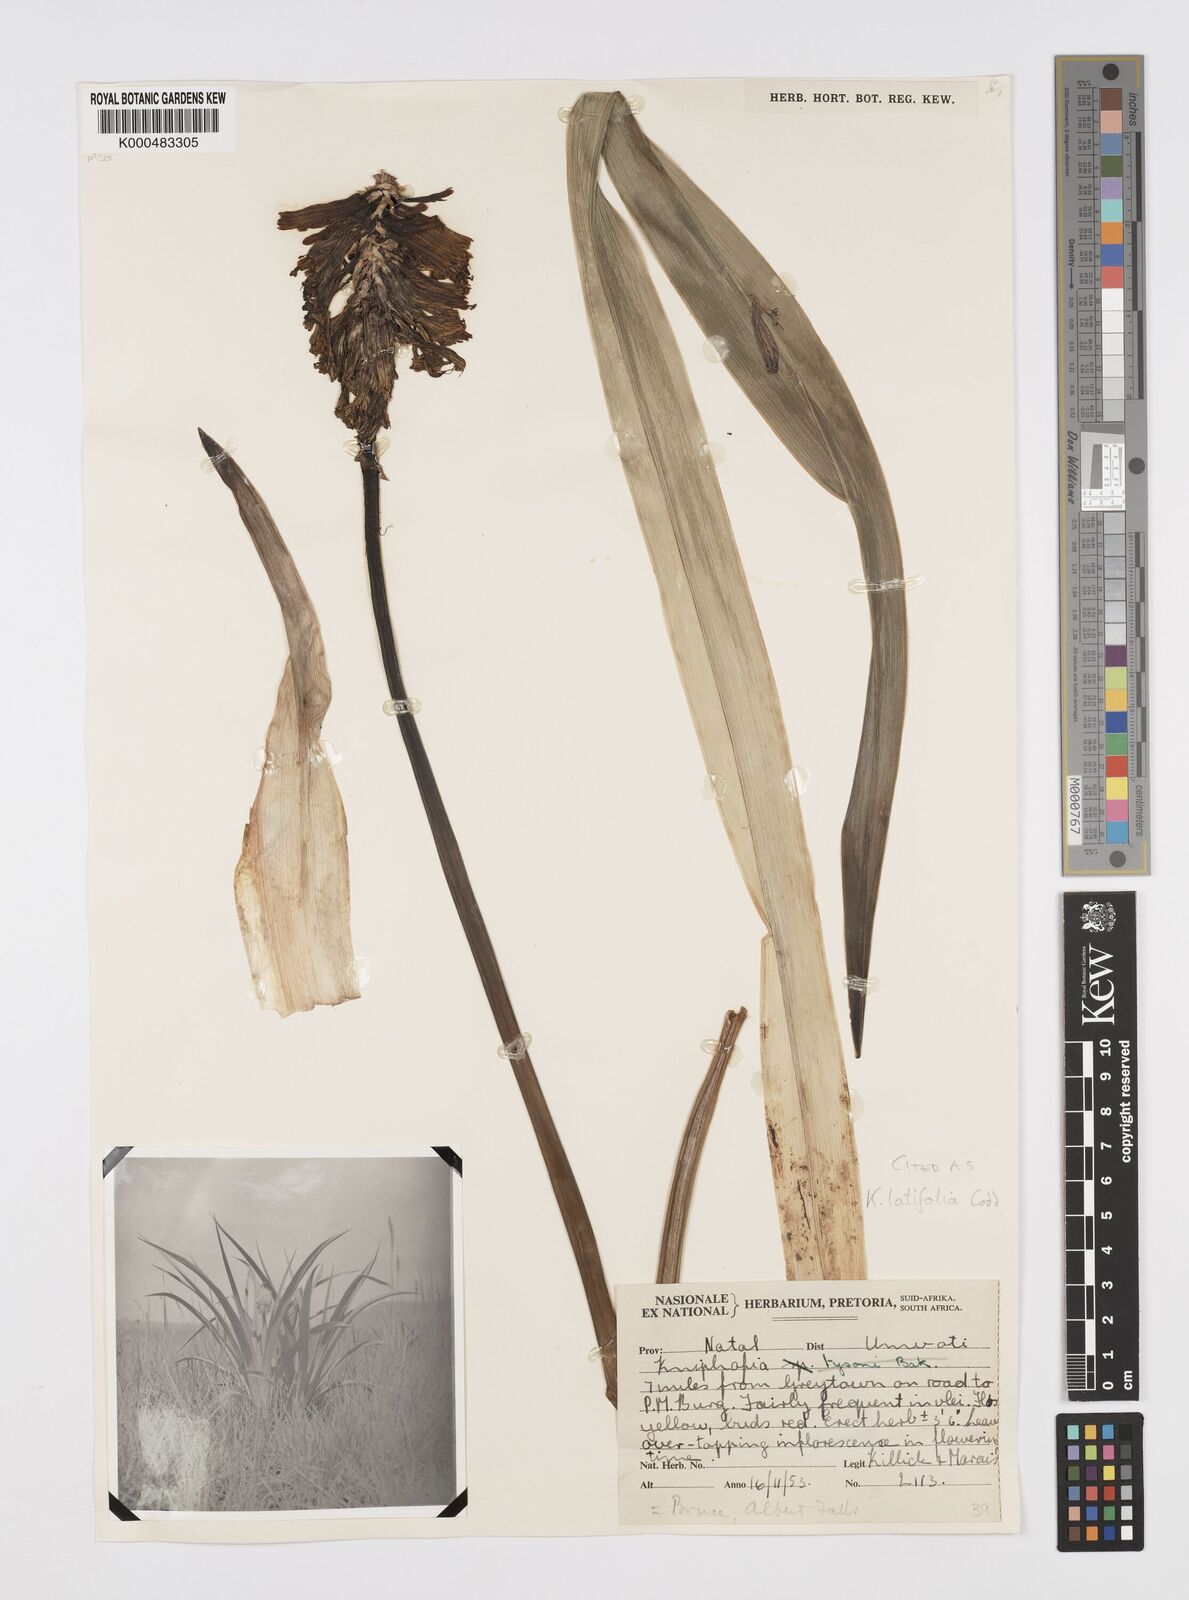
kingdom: Plantae
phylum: Tracheophyta
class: Liliopsida
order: Asparagales
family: Asphodelaceae
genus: Kniphofia
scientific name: Kniphofia latifolia
